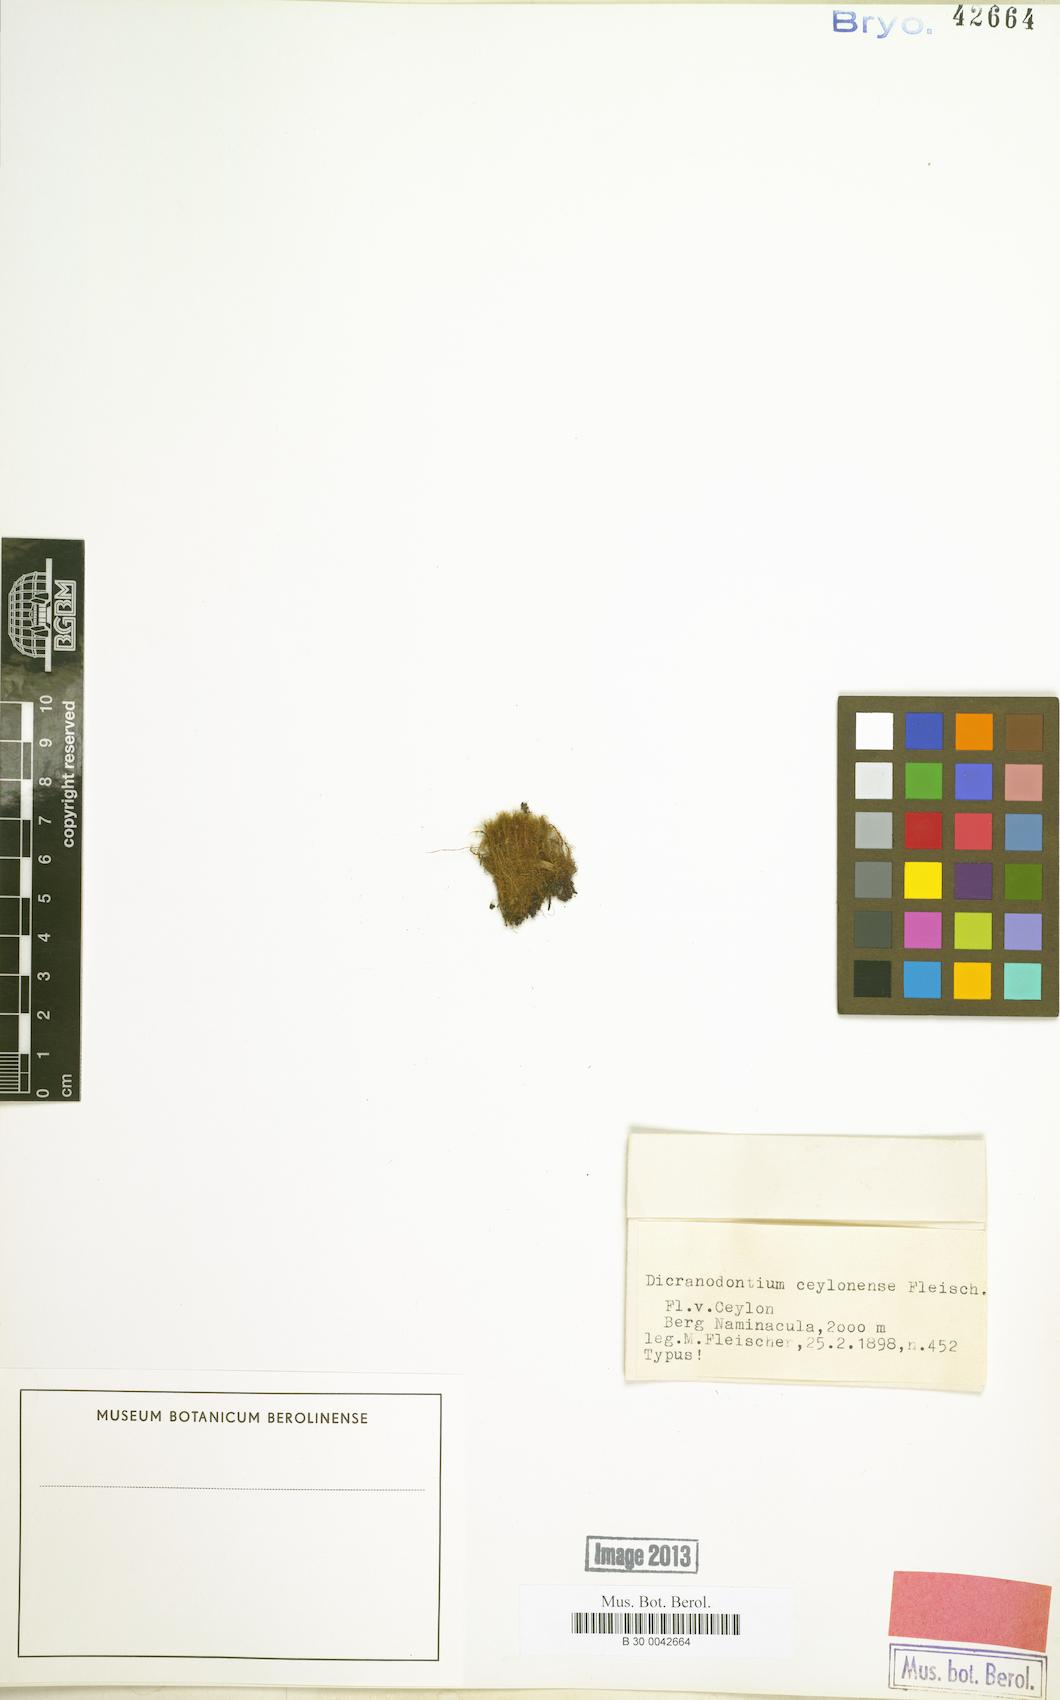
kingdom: Plantae
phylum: Bryophyta
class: Bryopsida
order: Dicranales
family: Leucobryaceae
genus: Dicranodontium
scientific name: Dicranodontium denudatum
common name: Beaked bow moss
